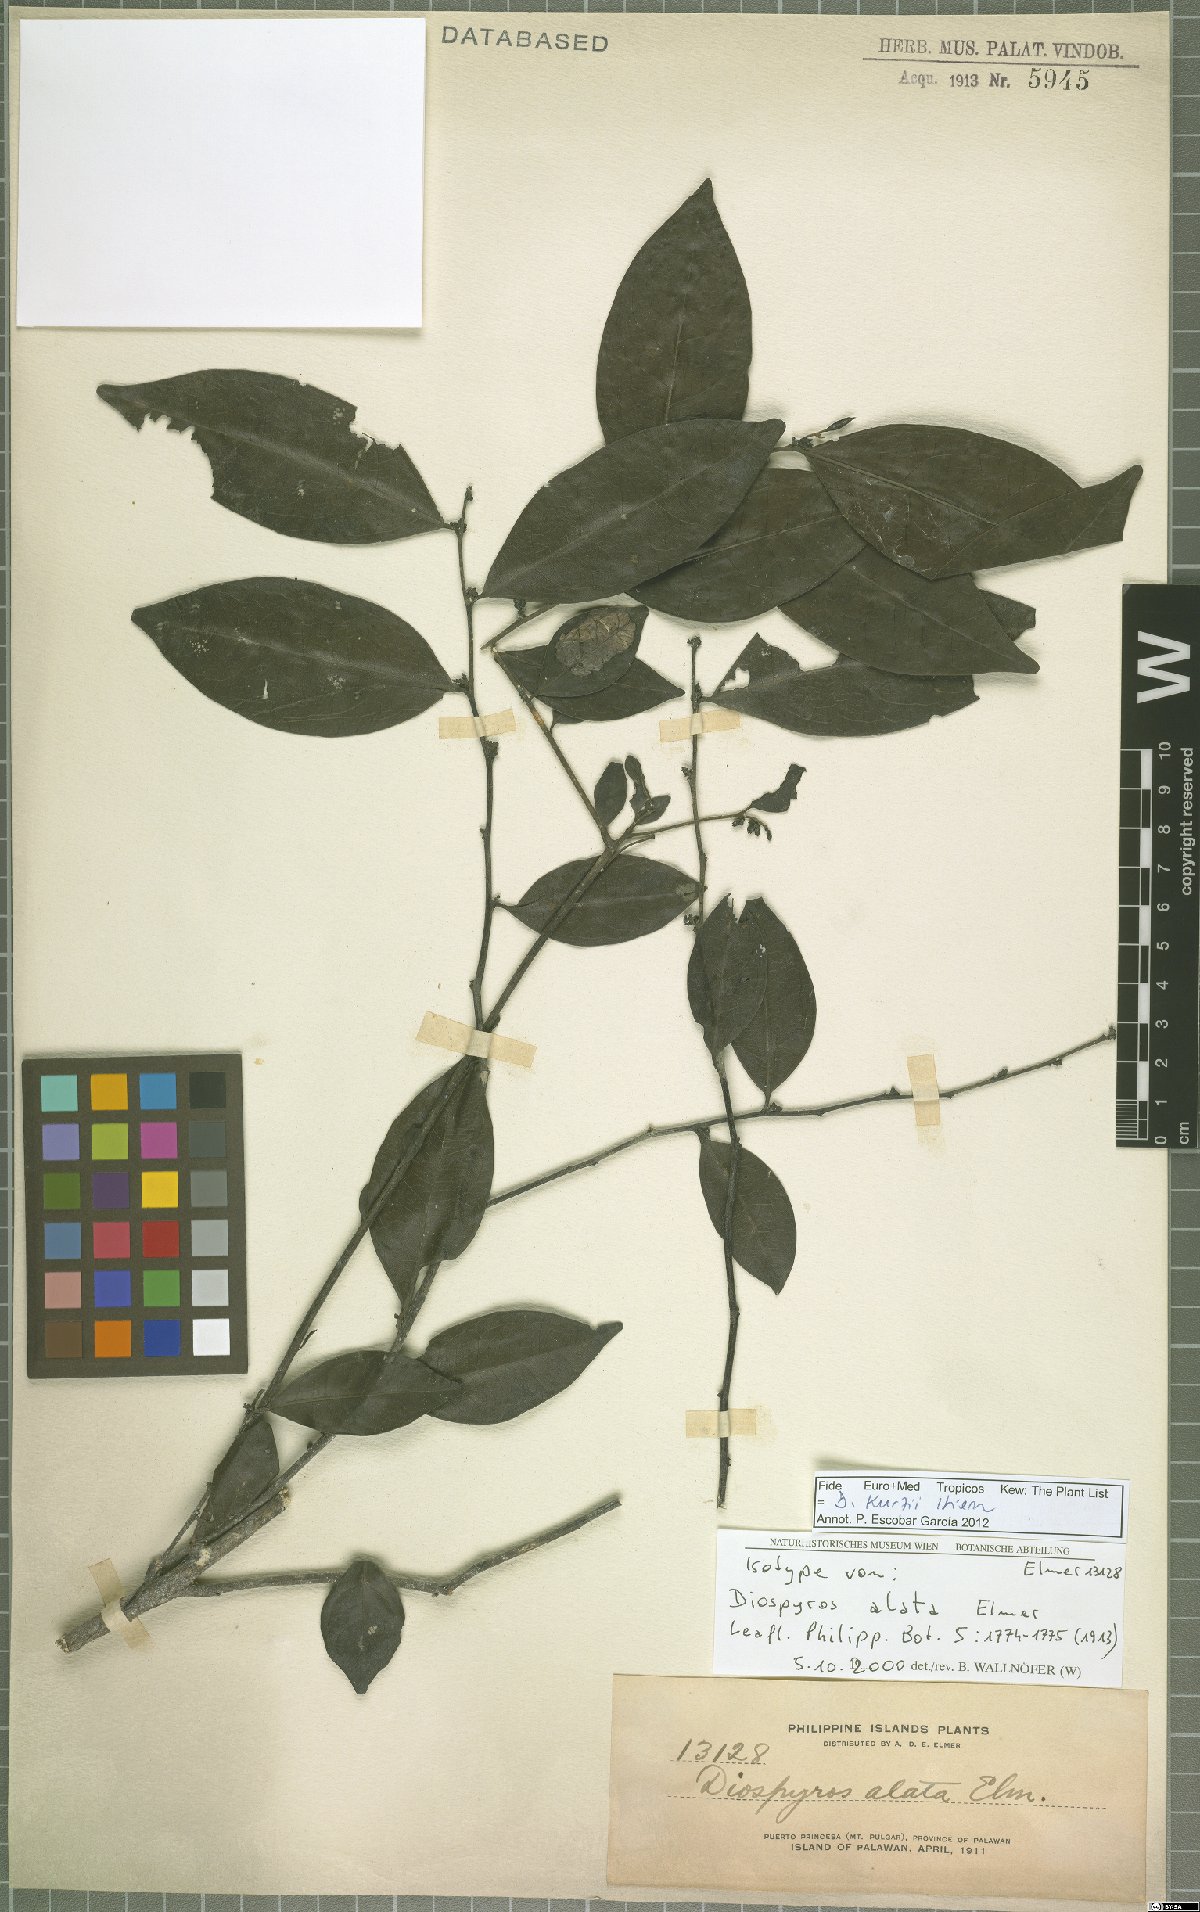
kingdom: Plantae
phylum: Tracheophyta
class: Magnoliopsida
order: Ericales
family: Ebenaceae
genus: Diospyros
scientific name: Diospyros kurzii
